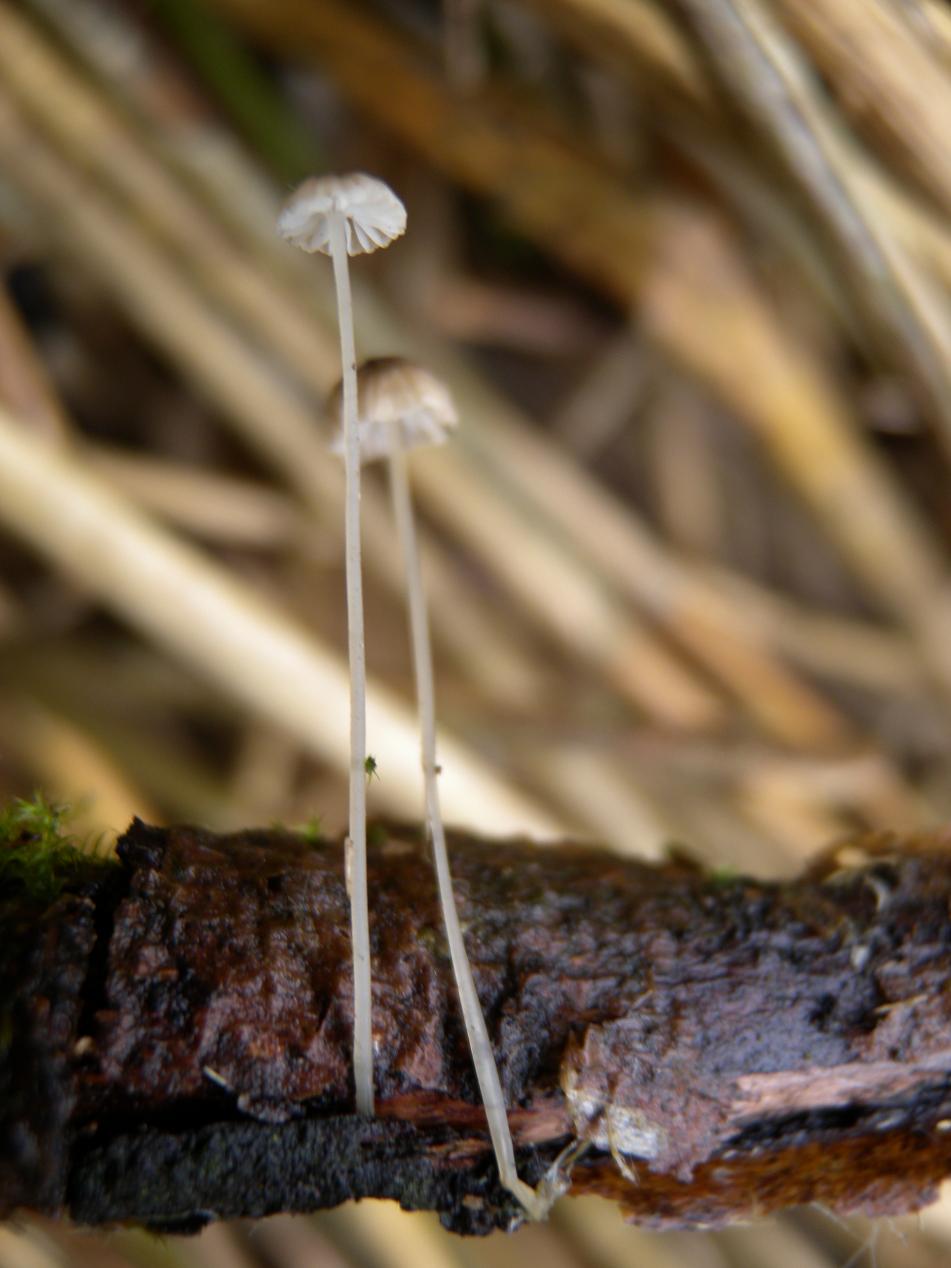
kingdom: Fungi
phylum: Basidiomycota
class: Agaricomycetes
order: Agaricales
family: Porotheleaceae
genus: Phloeomana
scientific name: Phloeomana speirea
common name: kvist-huesvamp
